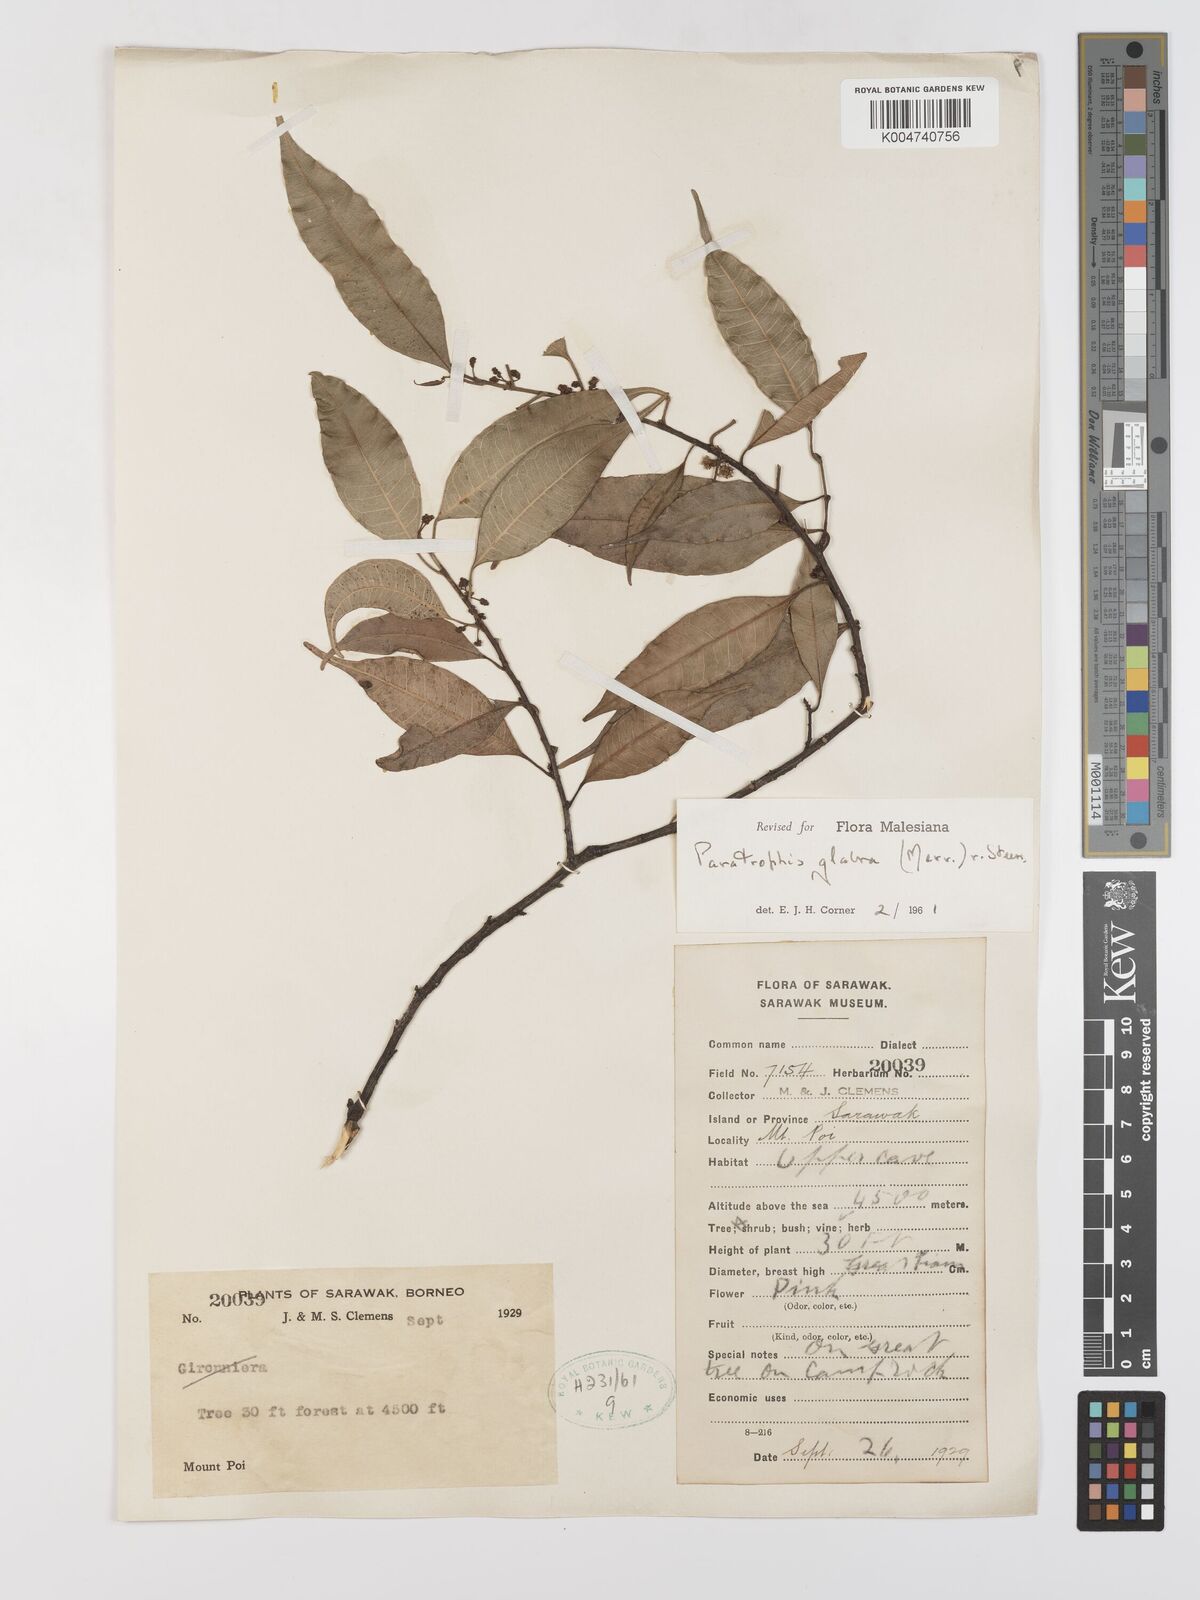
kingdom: Plantae
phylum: Tracheophyta
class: Magnoliopsida
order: Rosales
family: Moraceae
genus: Paratrophis
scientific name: Paratrophis glabra
